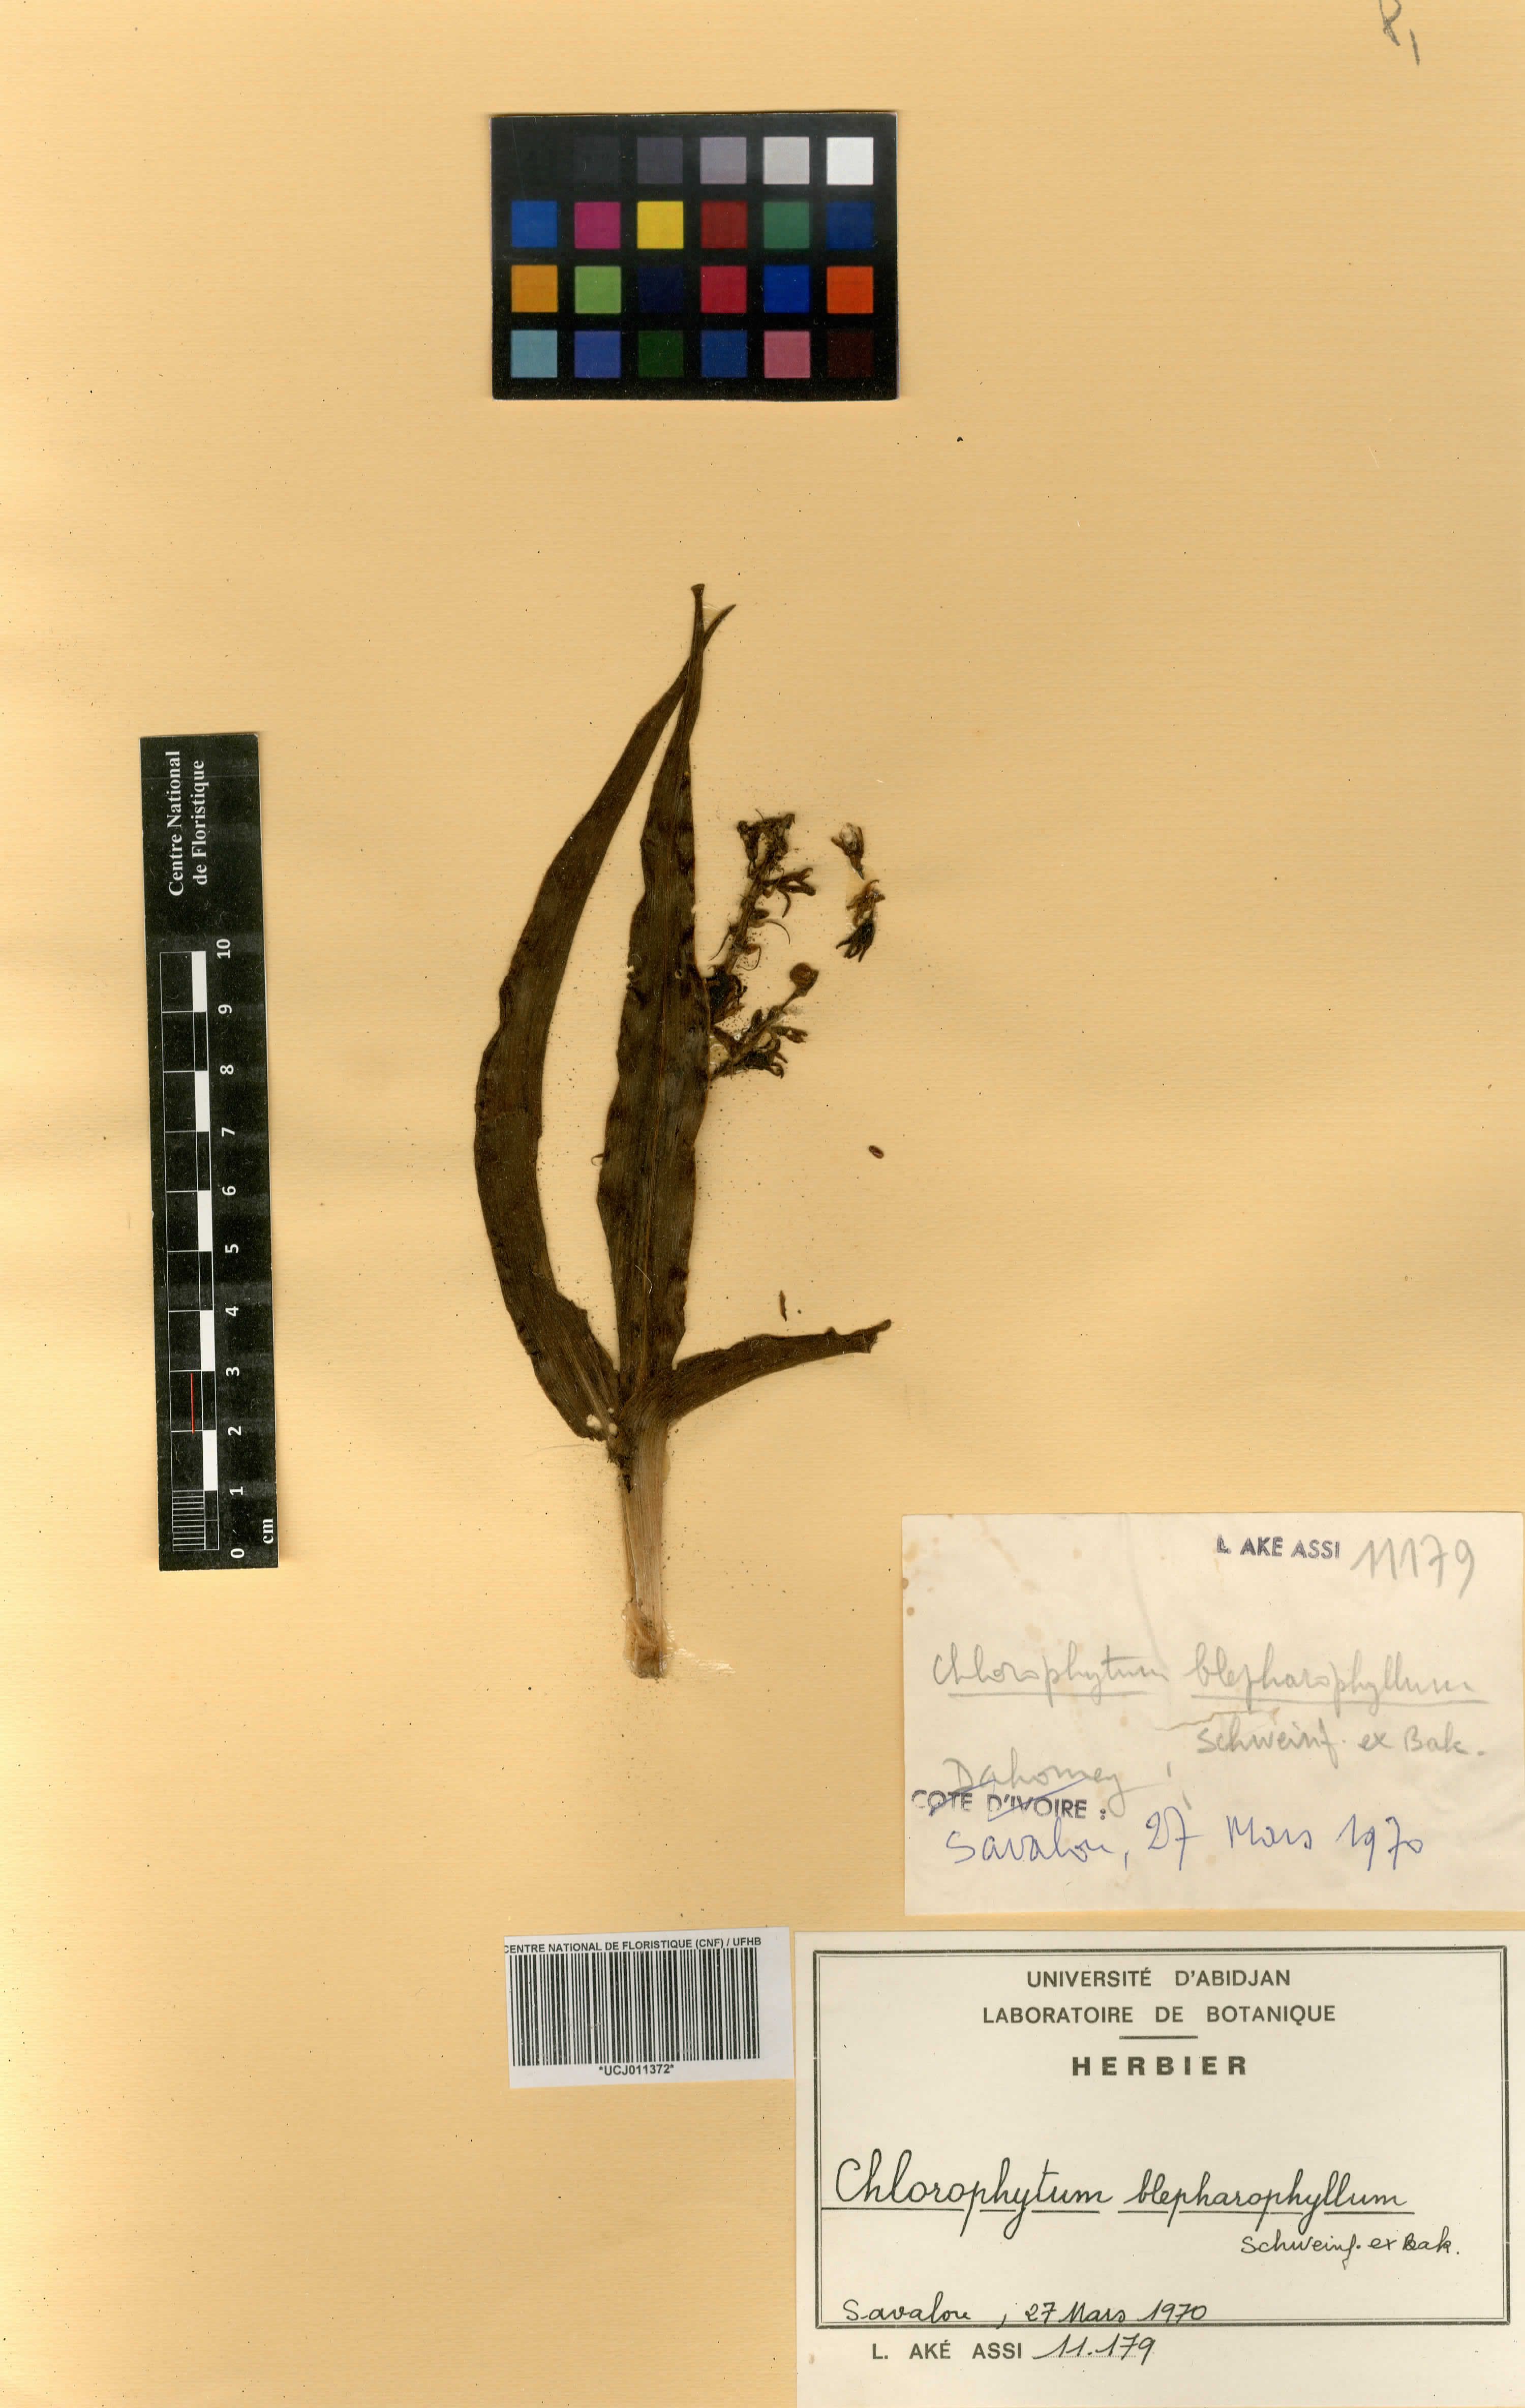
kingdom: Plantae
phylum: Tracheophyta
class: Liliopsida
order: Asparagales
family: Asparagaceae
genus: Chlorophytum
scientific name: Chlorophytum blepharophyllum
